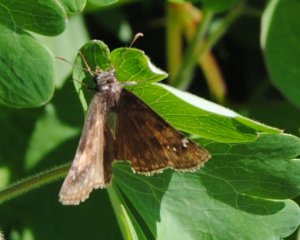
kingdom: Animalia
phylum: Arthropoda
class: Insecta
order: Lepidoptera
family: Hesperiidae
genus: Gesta
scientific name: Gesta
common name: Wild Indigo Duskywing
